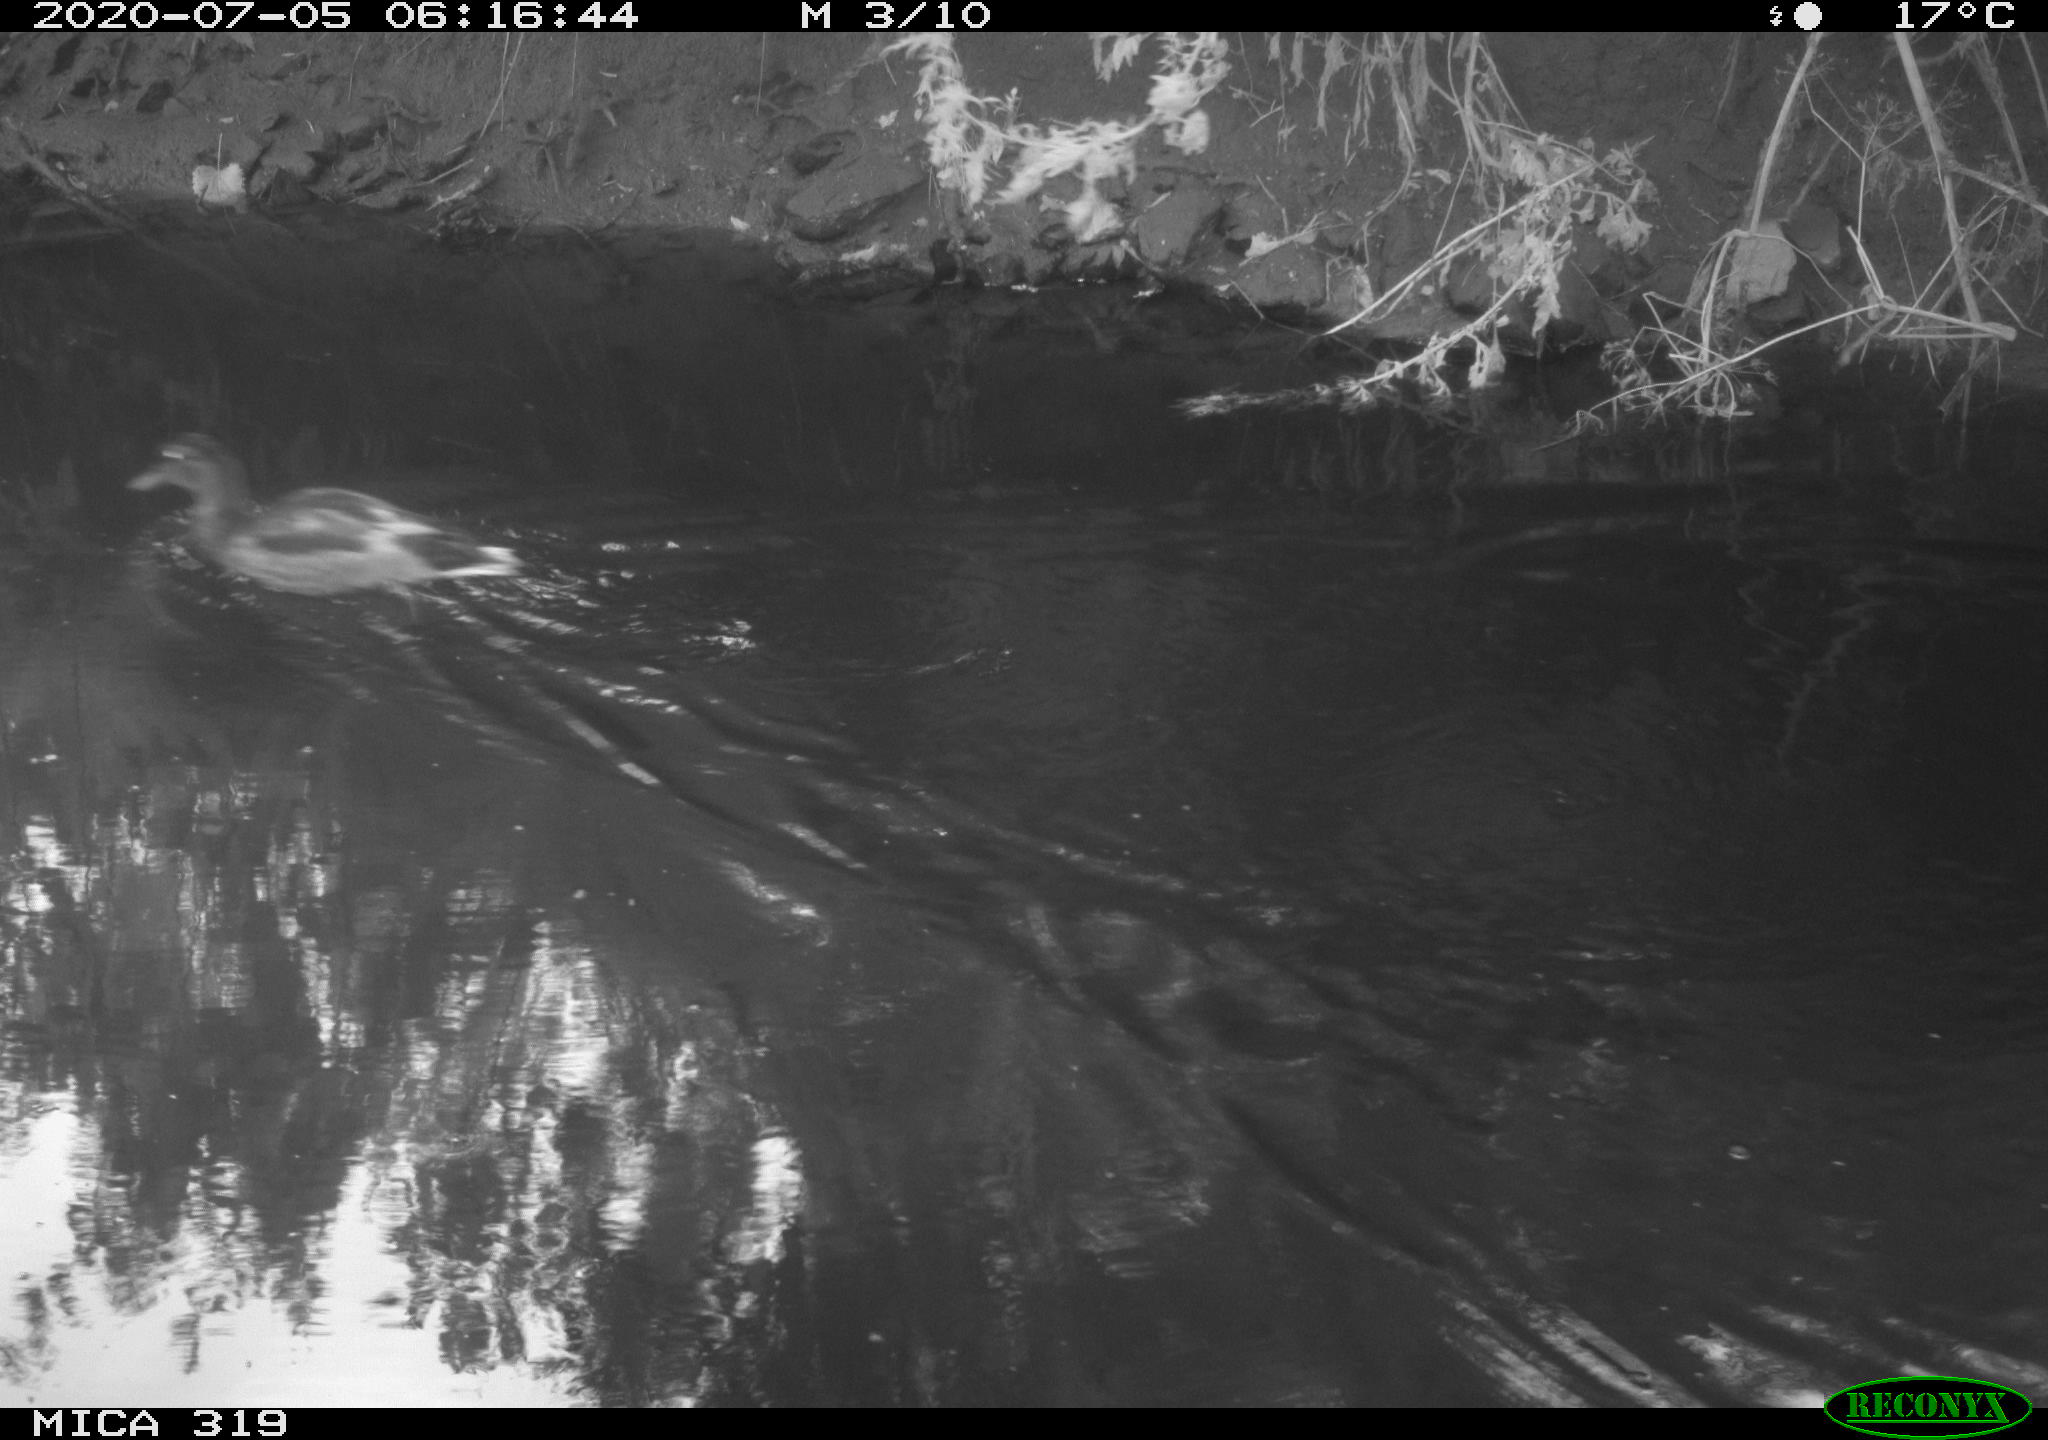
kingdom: Animalia
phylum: Chordata
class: Aves
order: Anseriformes
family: Anatidae
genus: Anas
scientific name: Anas platyrhynchos
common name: Mallard
